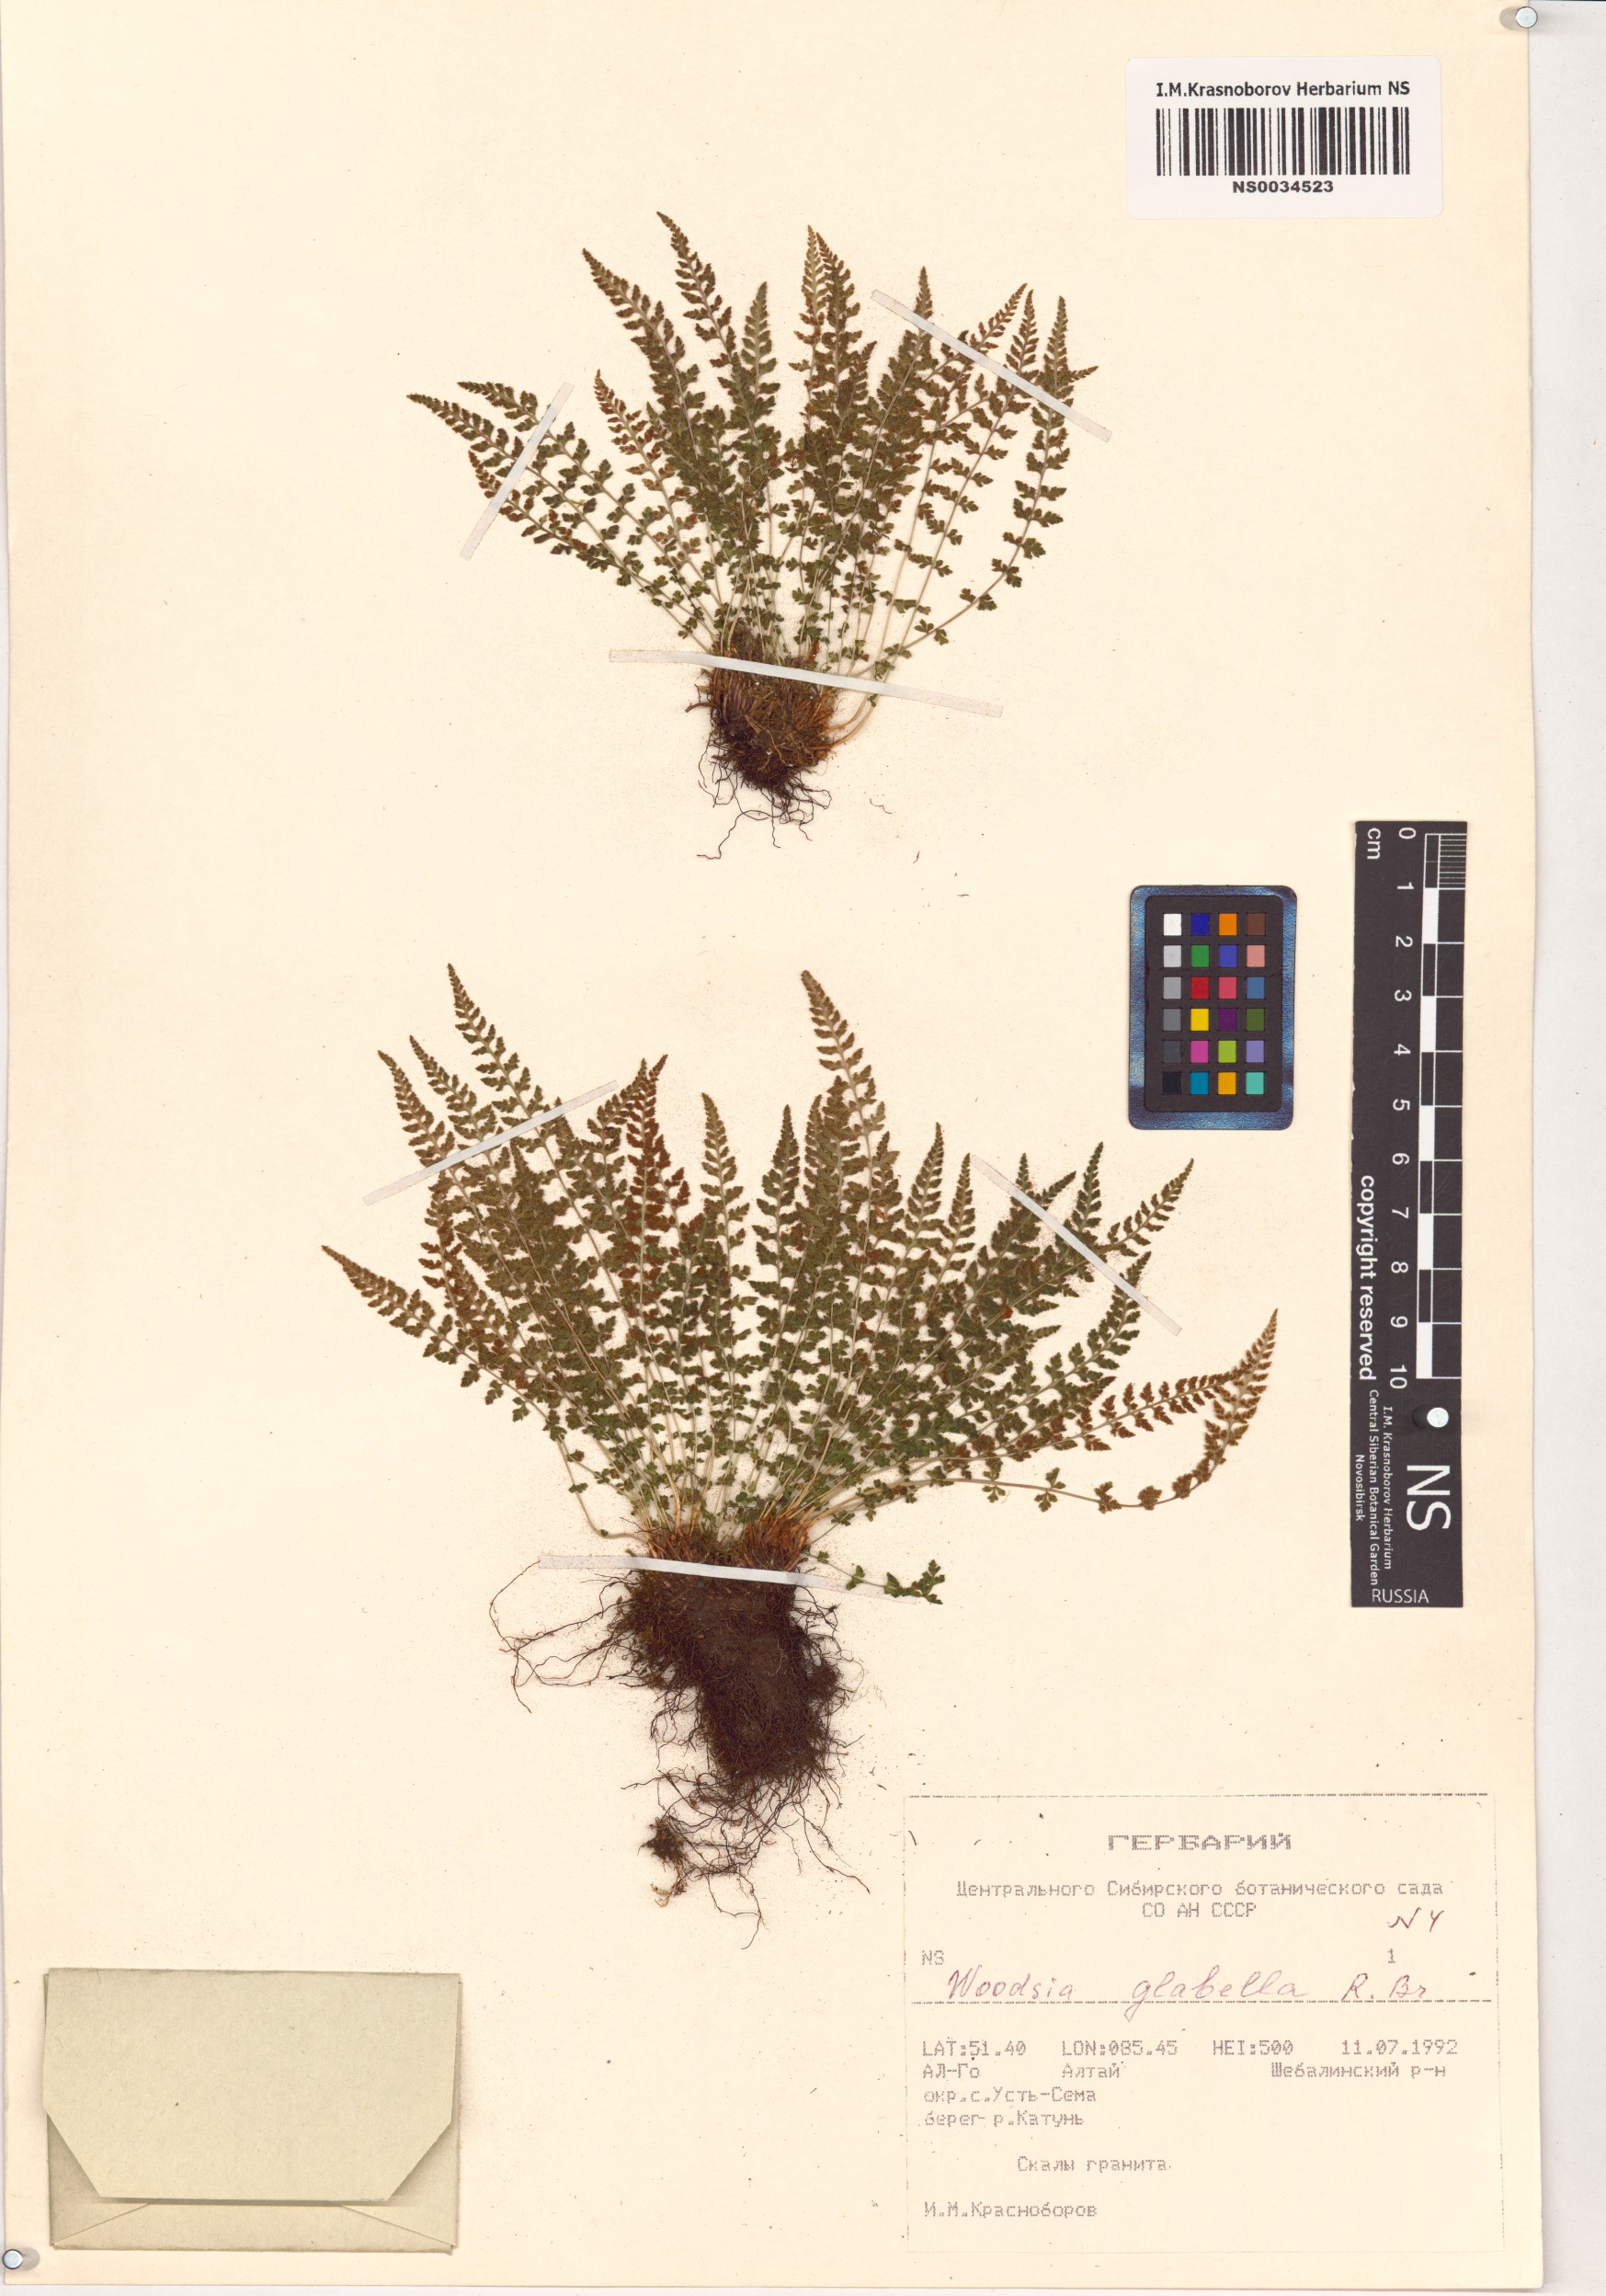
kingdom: Plantae
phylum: Tracheophyta
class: Polypodiopsida
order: Polypodiales
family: Woodsiaceae
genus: Woodsia
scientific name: Woodsia glabella
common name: Smooth woodsia
